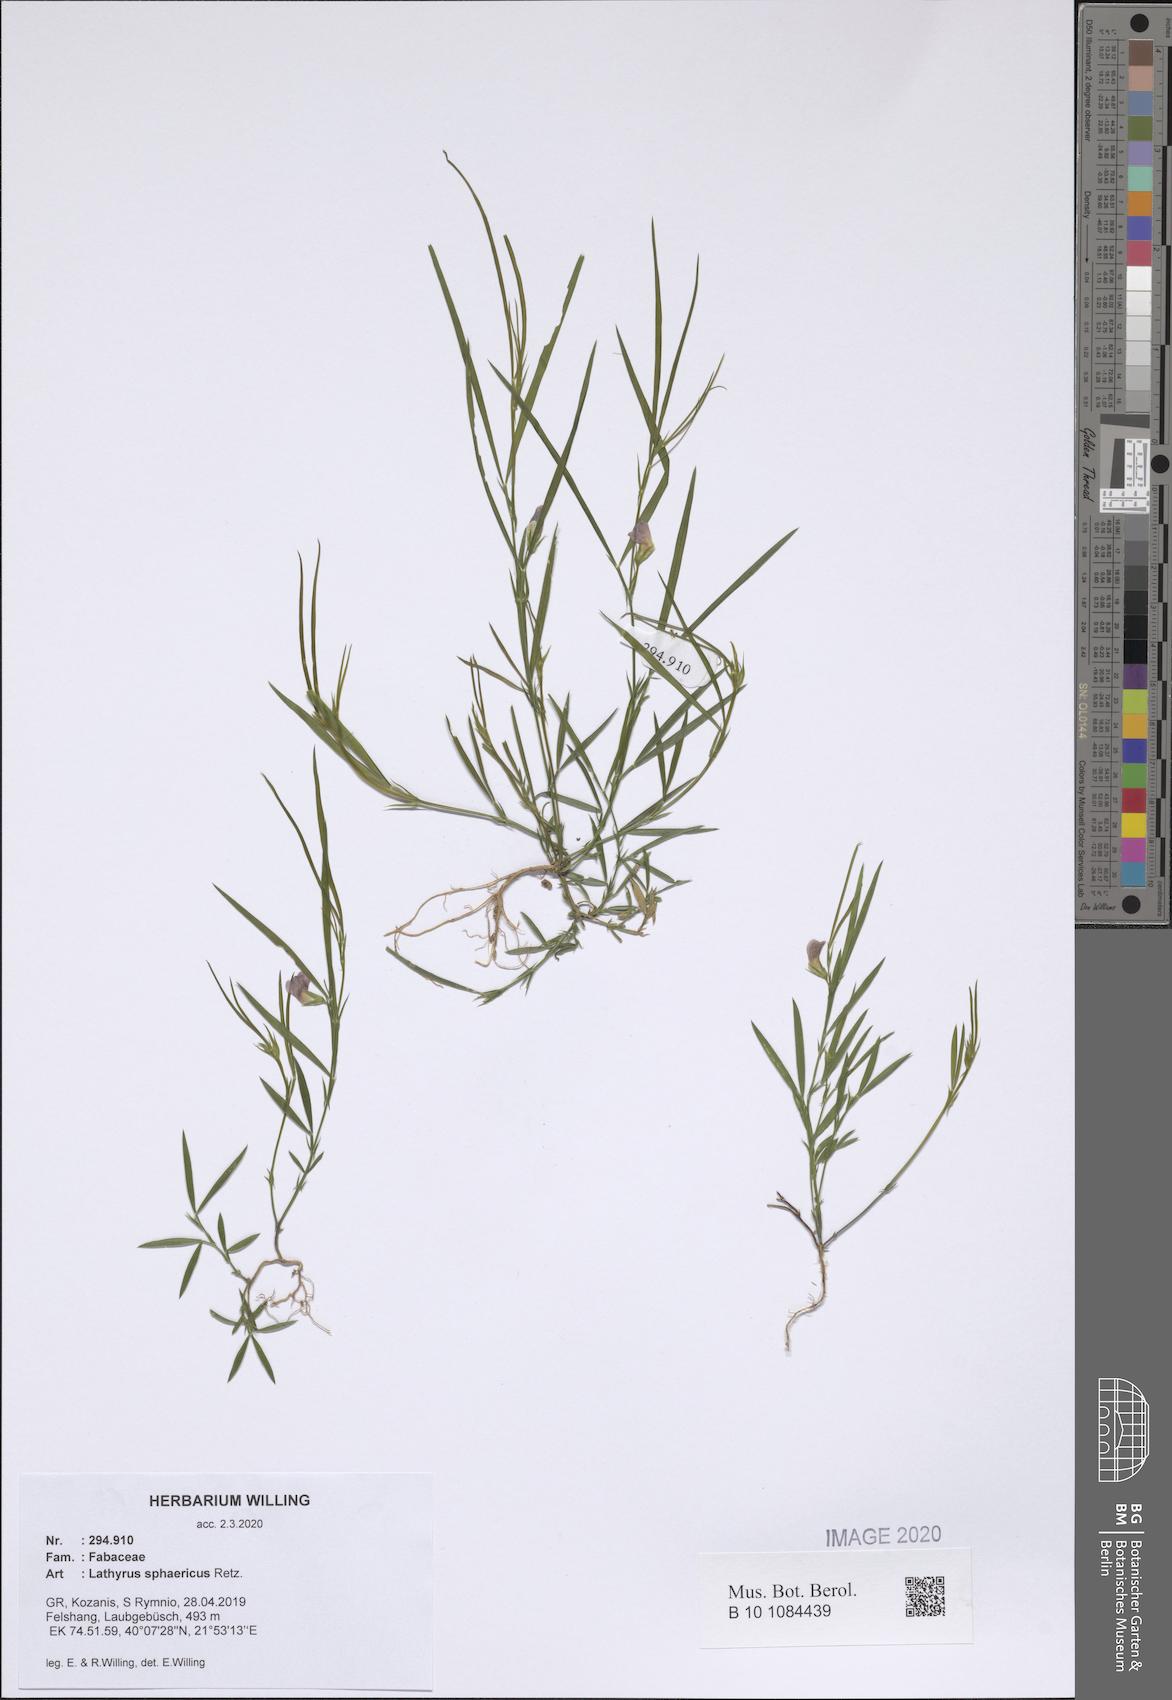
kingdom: Plantae
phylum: Tracheophyta
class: Magnoliopsida
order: Fabales
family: Fabaceae
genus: Lathyrus
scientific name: Lathyrus sphaericus
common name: Grass pea
